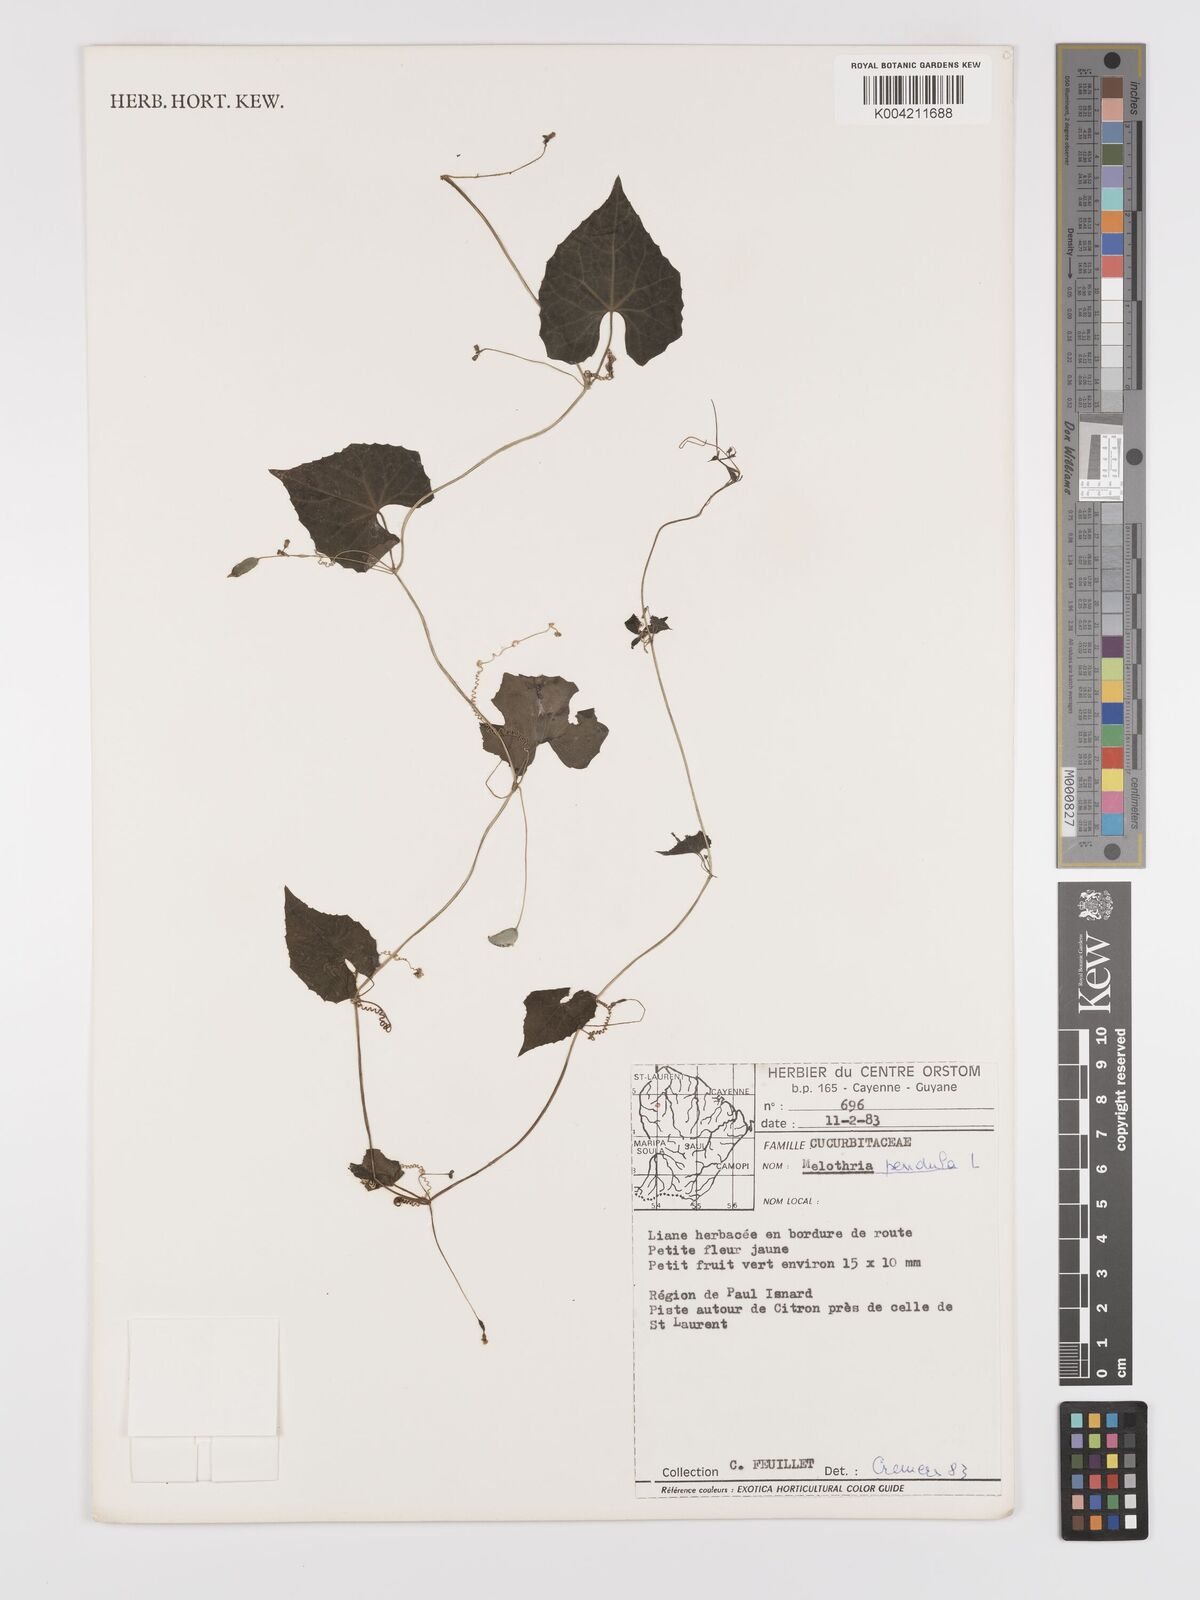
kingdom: Plantae
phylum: Tracheophyta
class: Magnoliopsida
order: Cucurbitales
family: Cucurbitaceae
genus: Melothria
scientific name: Melothria pendula
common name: Creeping-cucumber
